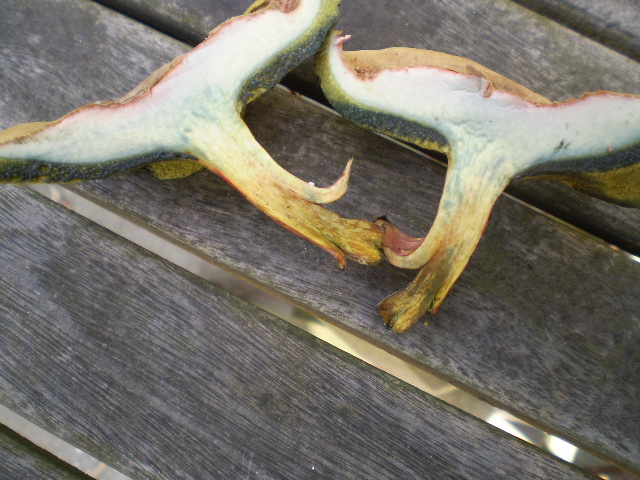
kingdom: Fungi
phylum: Basidiomycota
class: Agaricomycetes
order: Boletales
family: Boletaceae
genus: Hortiboletus
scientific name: Hortiboletus bubalinus
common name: aurora-rørhat
